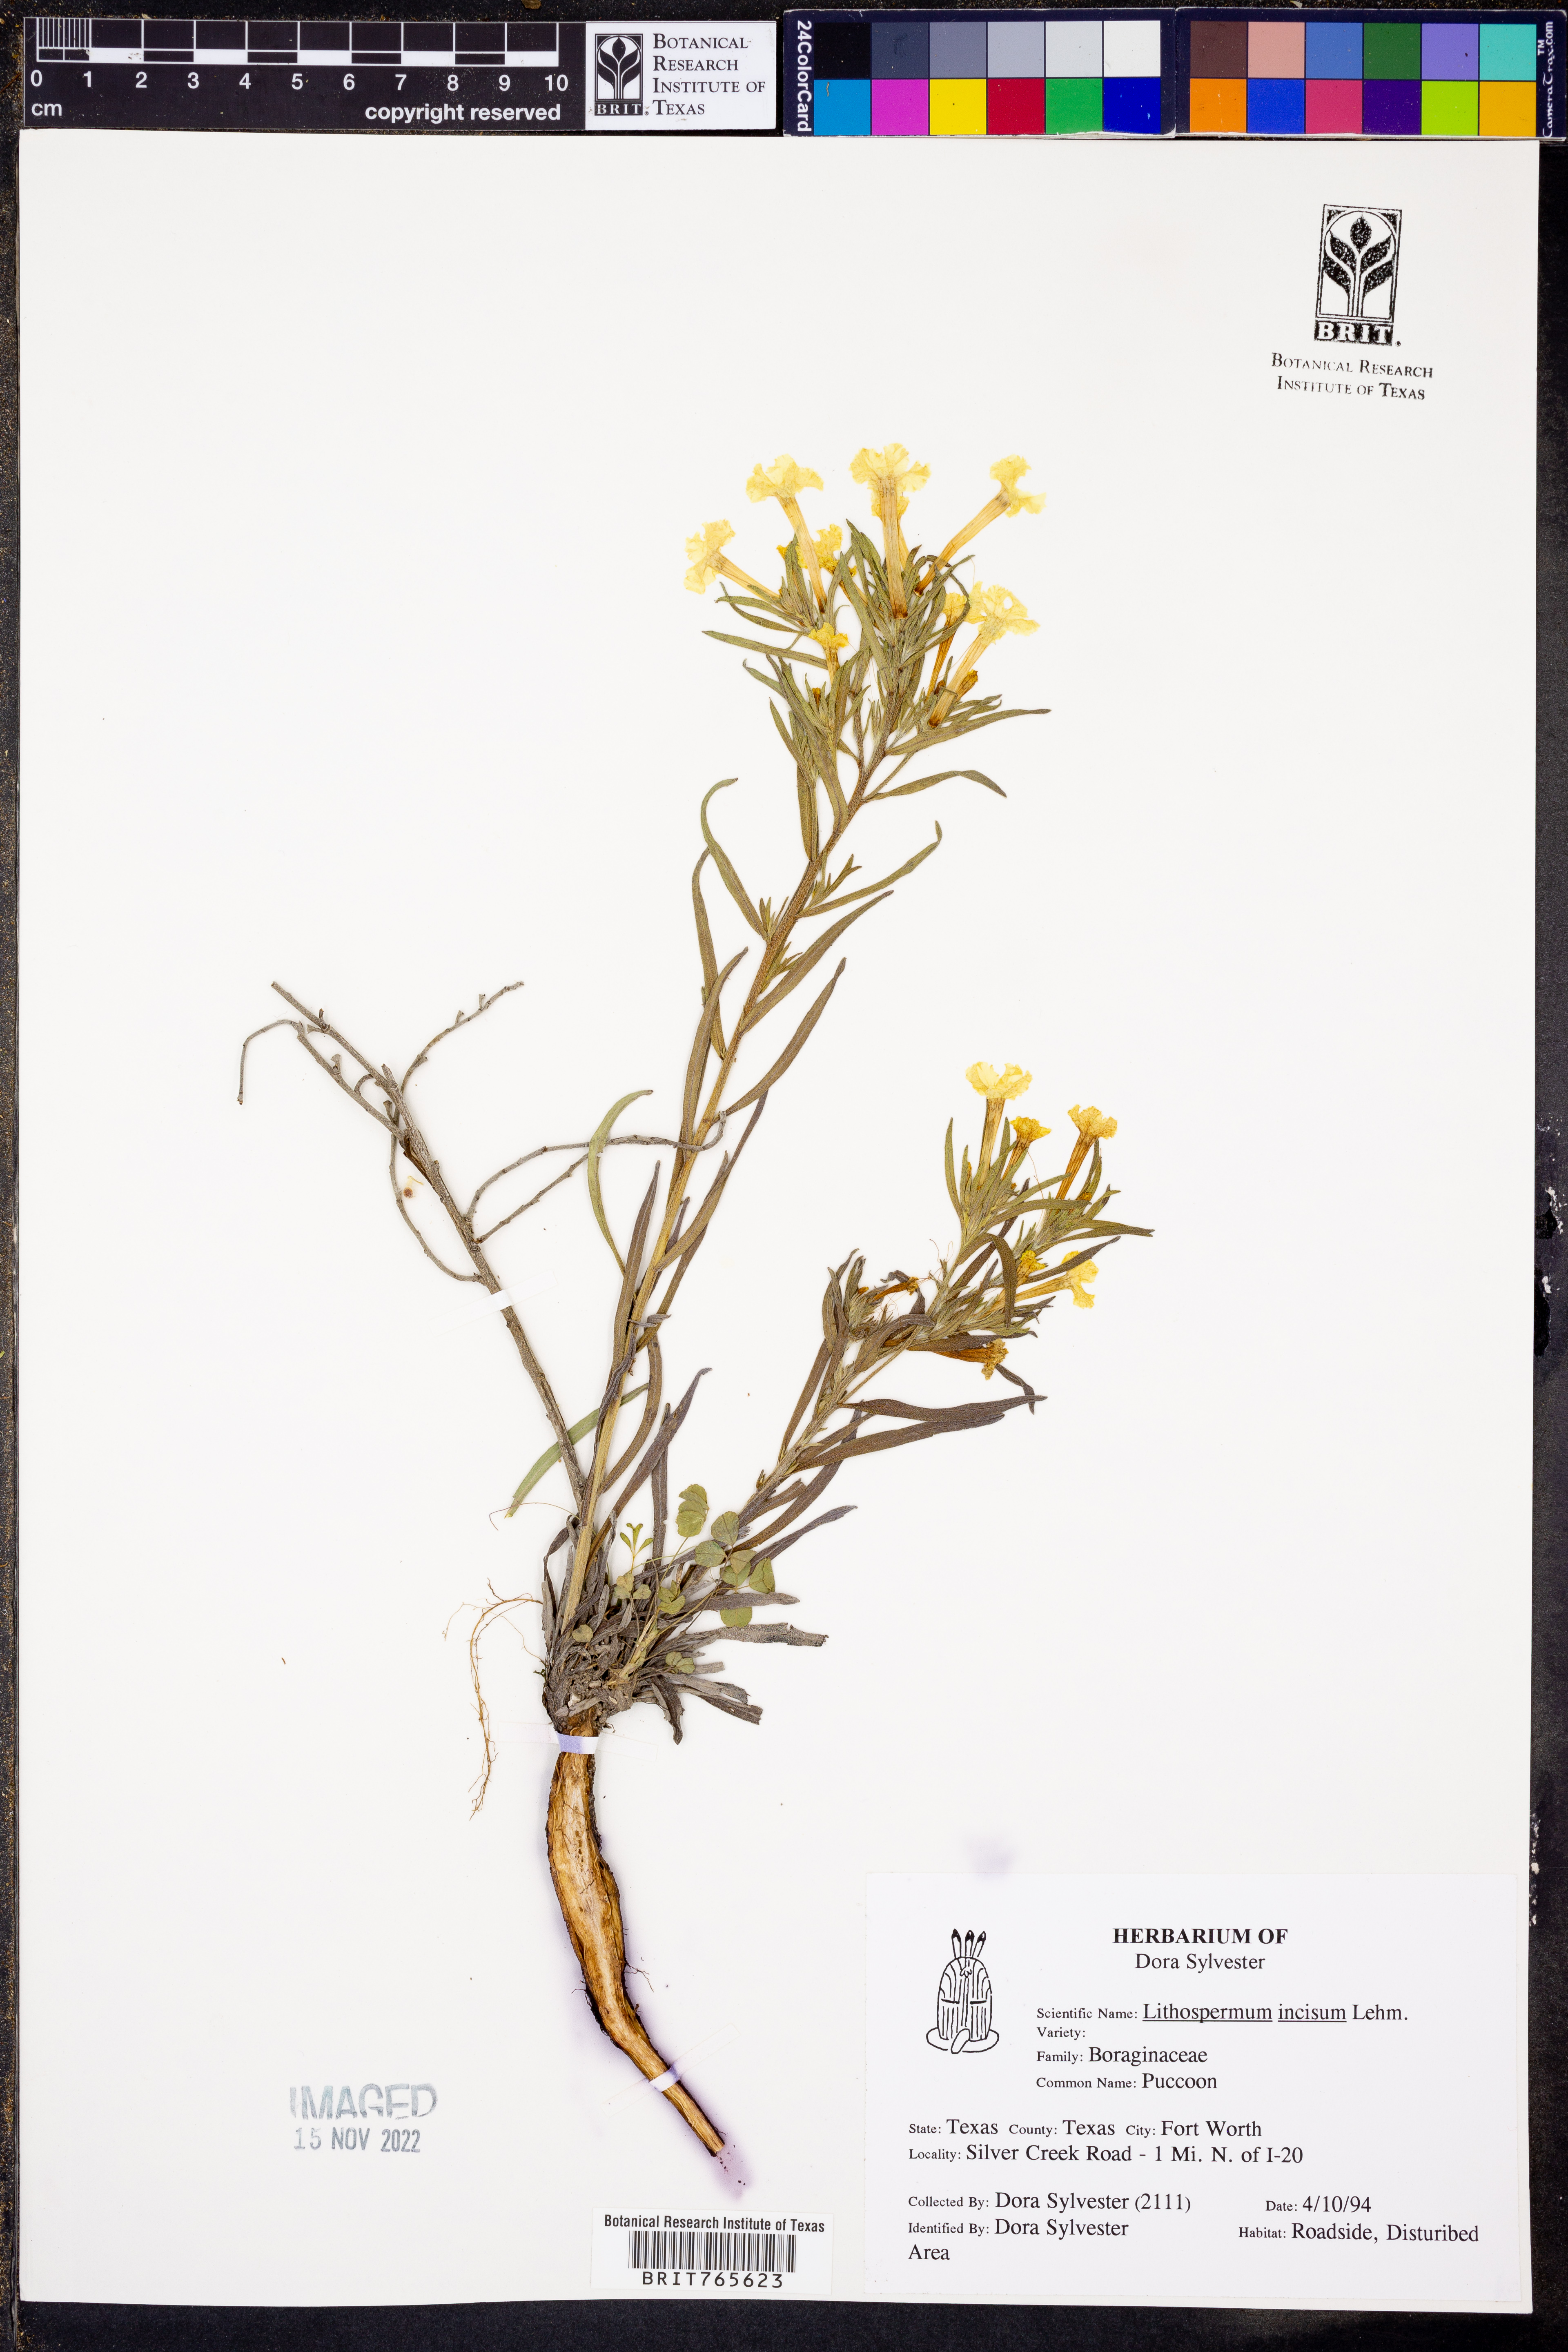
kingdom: Plantae
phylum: Tracheophyta
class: Magnoliopsida
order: Boraginales
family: Boraginaceae
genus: Lithospermum
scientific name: Lithospermum incisum
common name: Fringed gromwell
